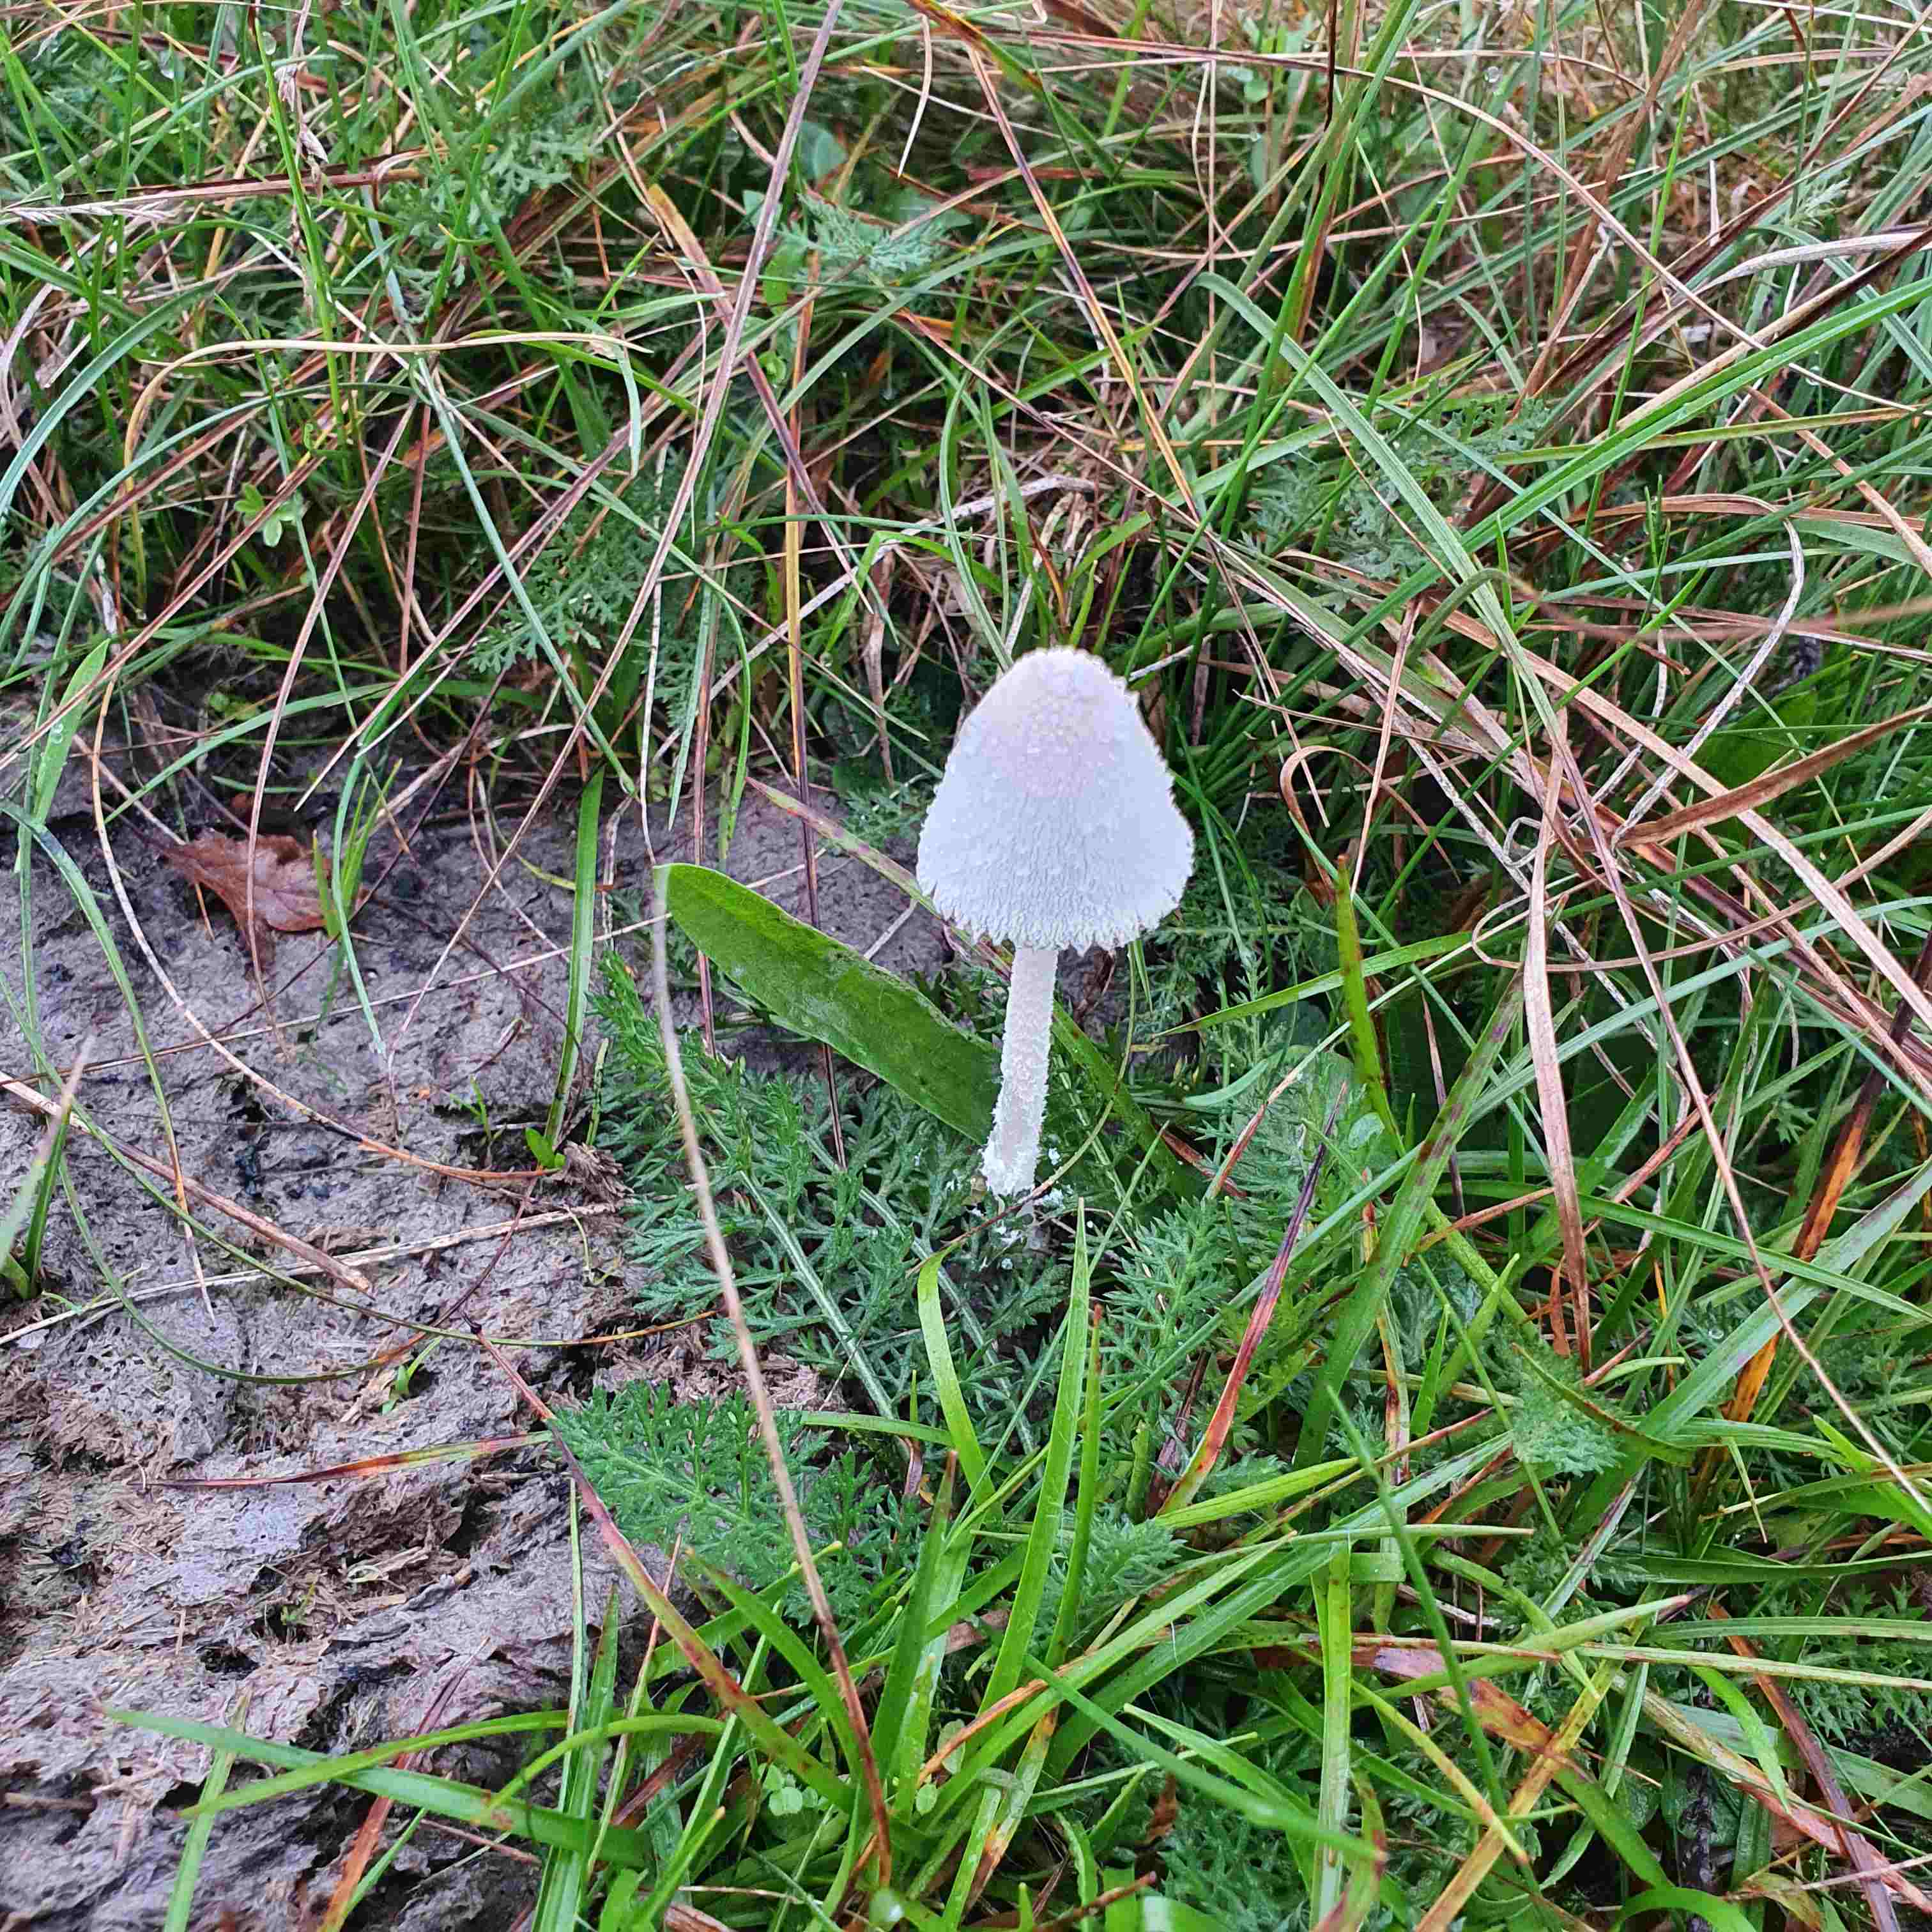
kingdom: Fungi
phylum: Basidiomycota
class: Agaricomycetes
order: Agaricales
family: Psathyrellaceae
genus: Coprinopsis
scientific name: Coprinopsis nivea
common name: snehvid blækhat
